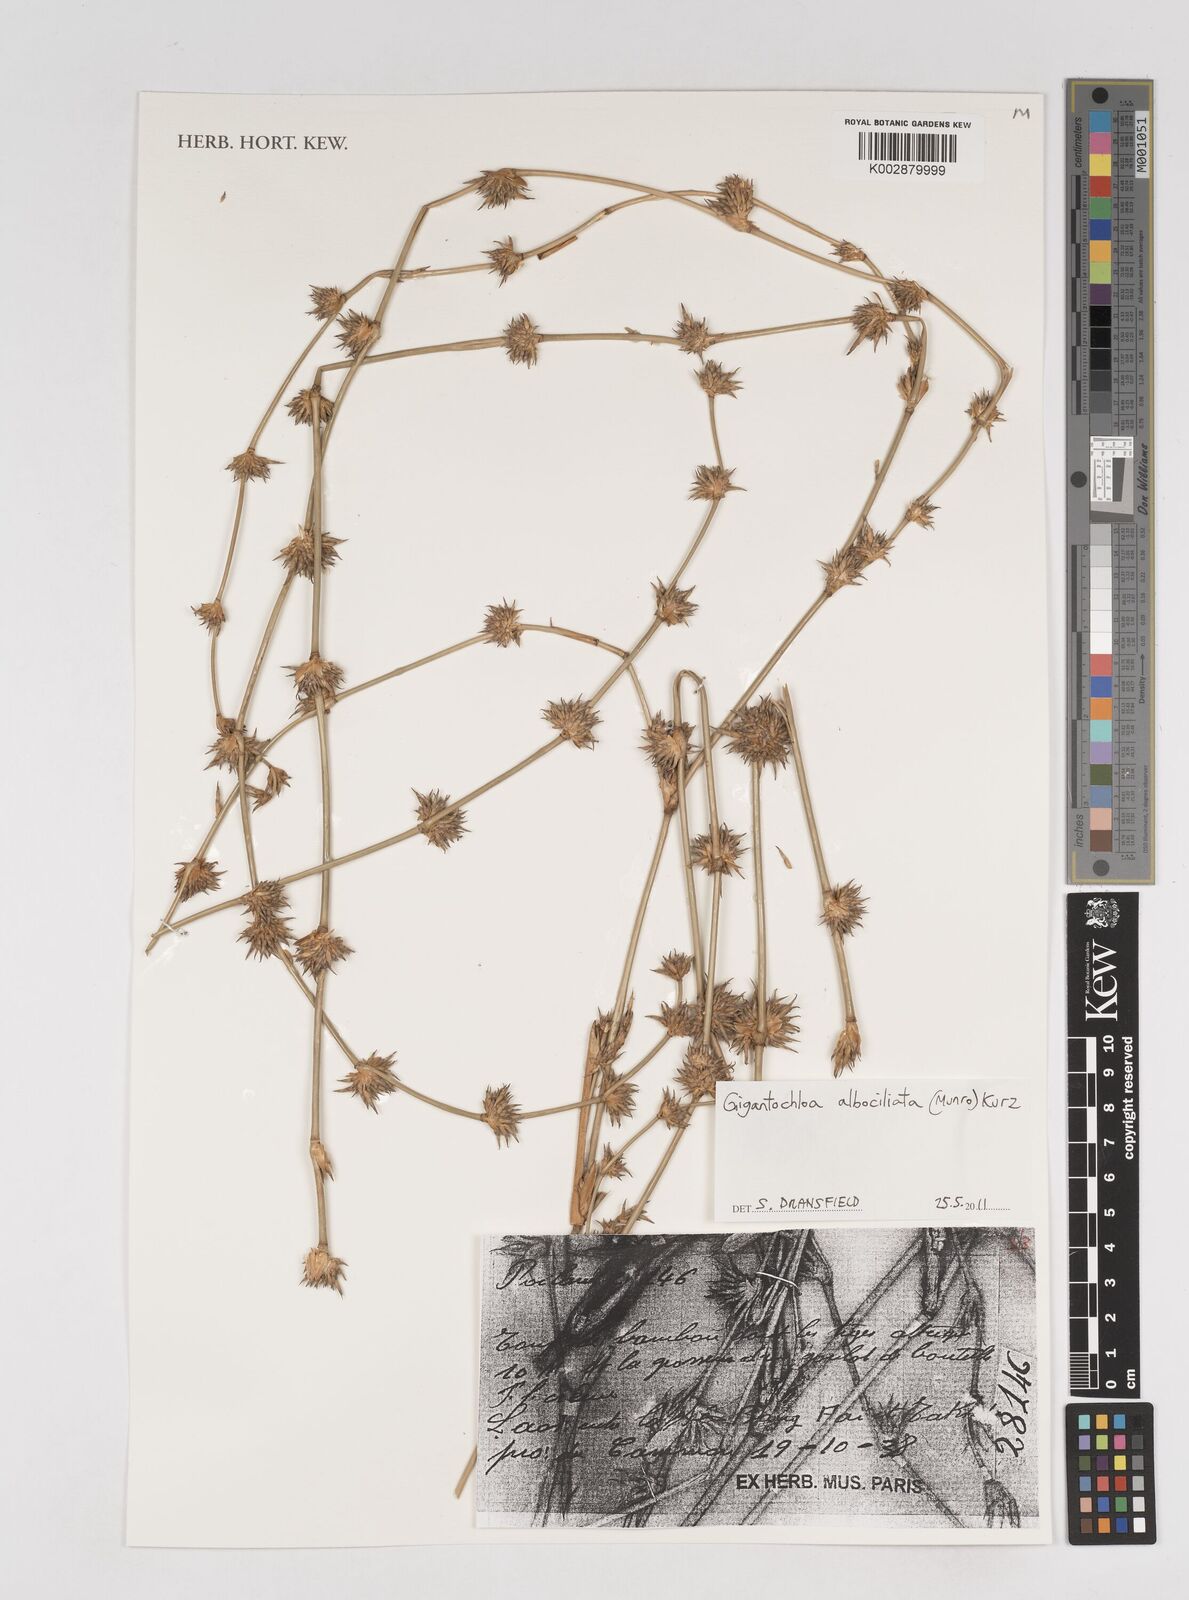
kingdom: Plantae
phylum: Tracheophyta
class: Liliopsida
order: Poales
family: Poaceae
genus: Gigantochloa
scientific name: Gigantochloa albociliata
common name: White-fringe gigantochloa
